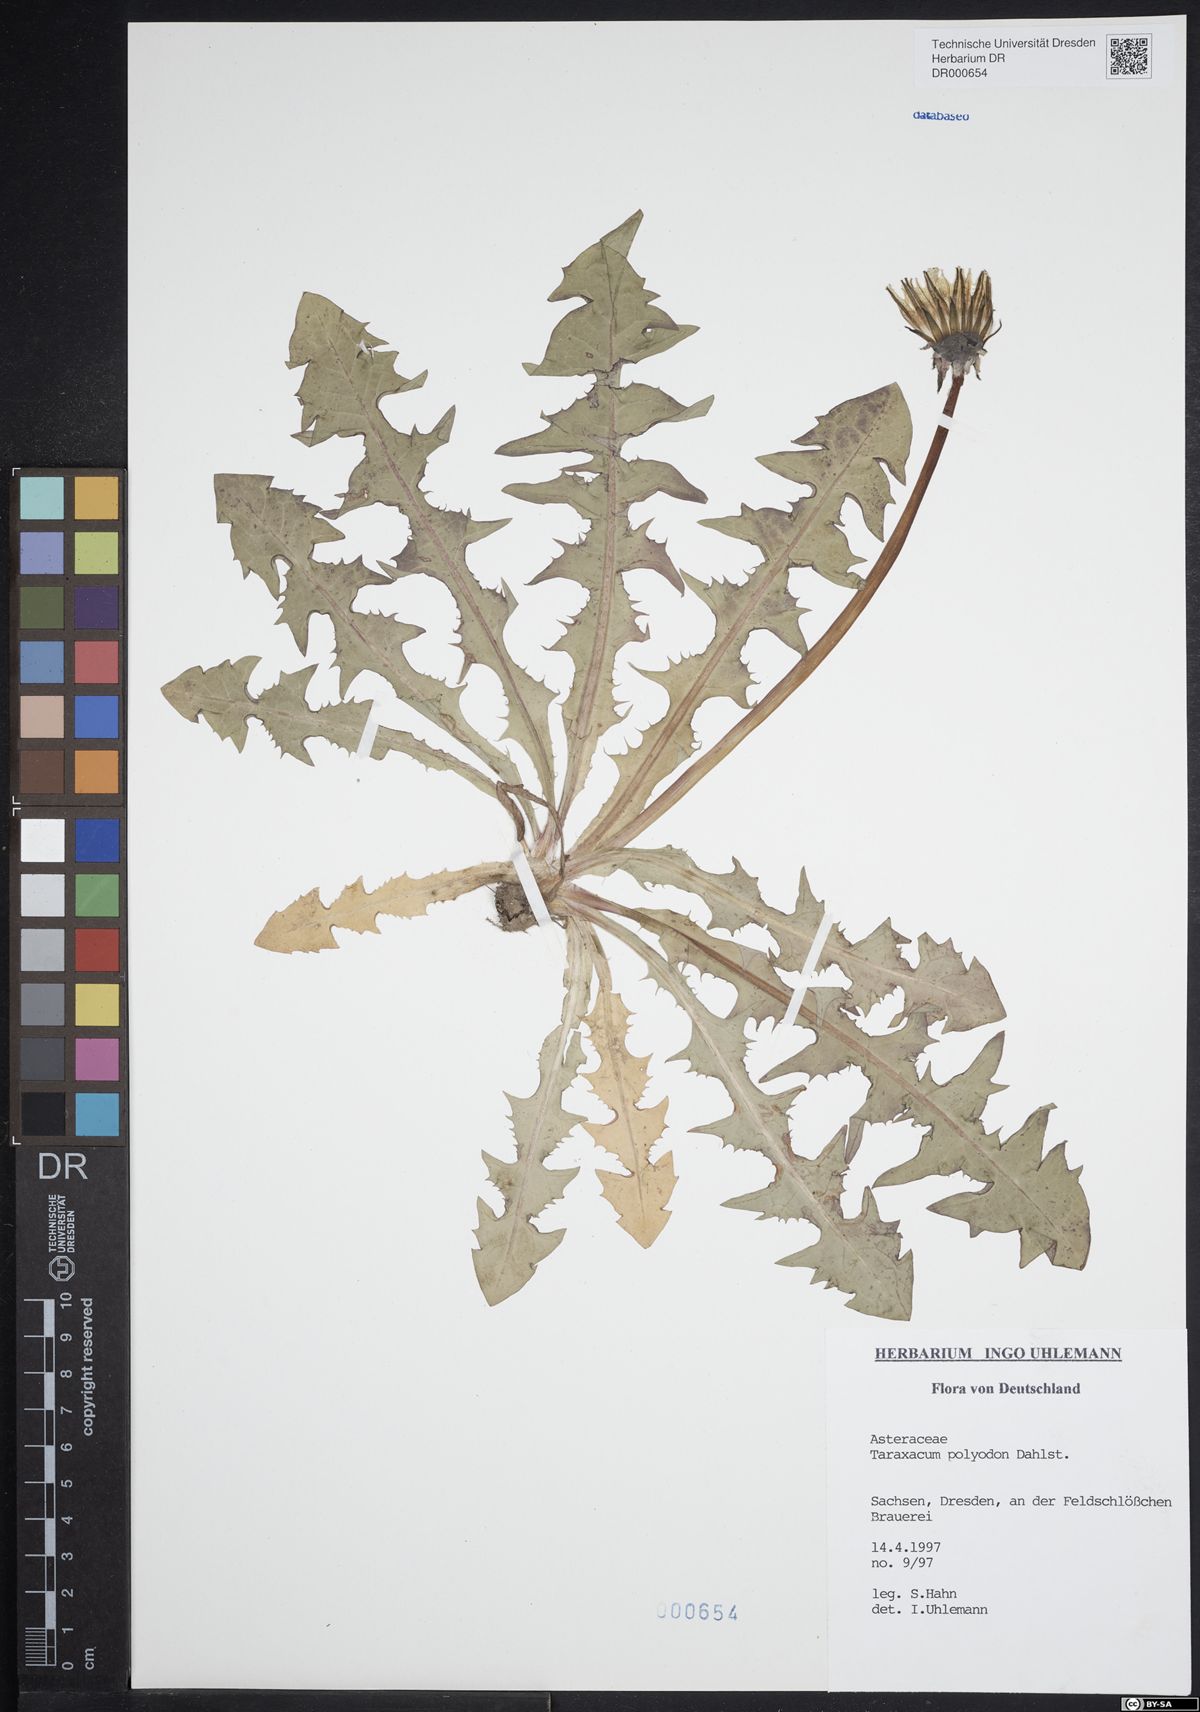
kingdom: Plantae
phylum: Tracheophyta
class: Magnoliopsida
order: Asterales
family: Asteraceae
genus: Taraxacum
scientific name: Taraxacum polyodon
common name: Common dandelion
